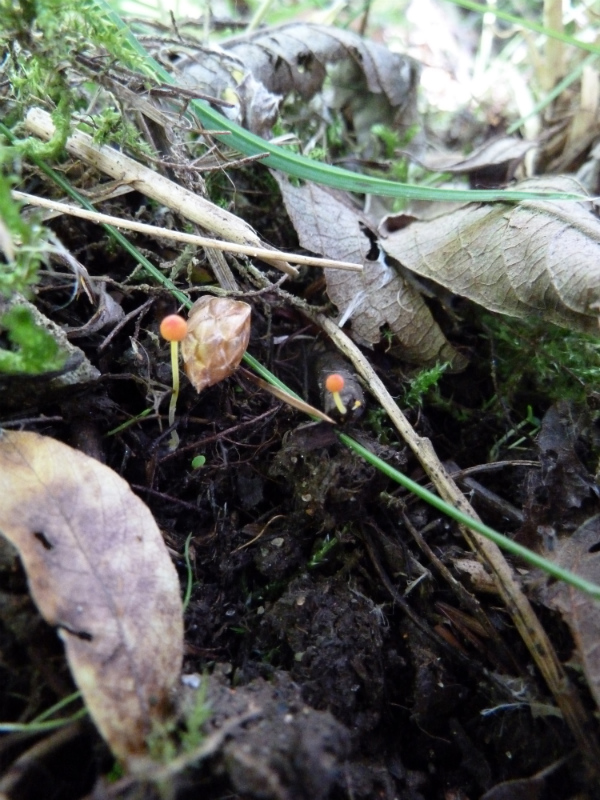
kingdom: Fungi
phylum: Basidiomycota
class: Agaricomycetes
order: Agaricales
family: Mycenaceae
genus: Mycena
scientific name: Mycena acicula
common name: orange huesvamp
